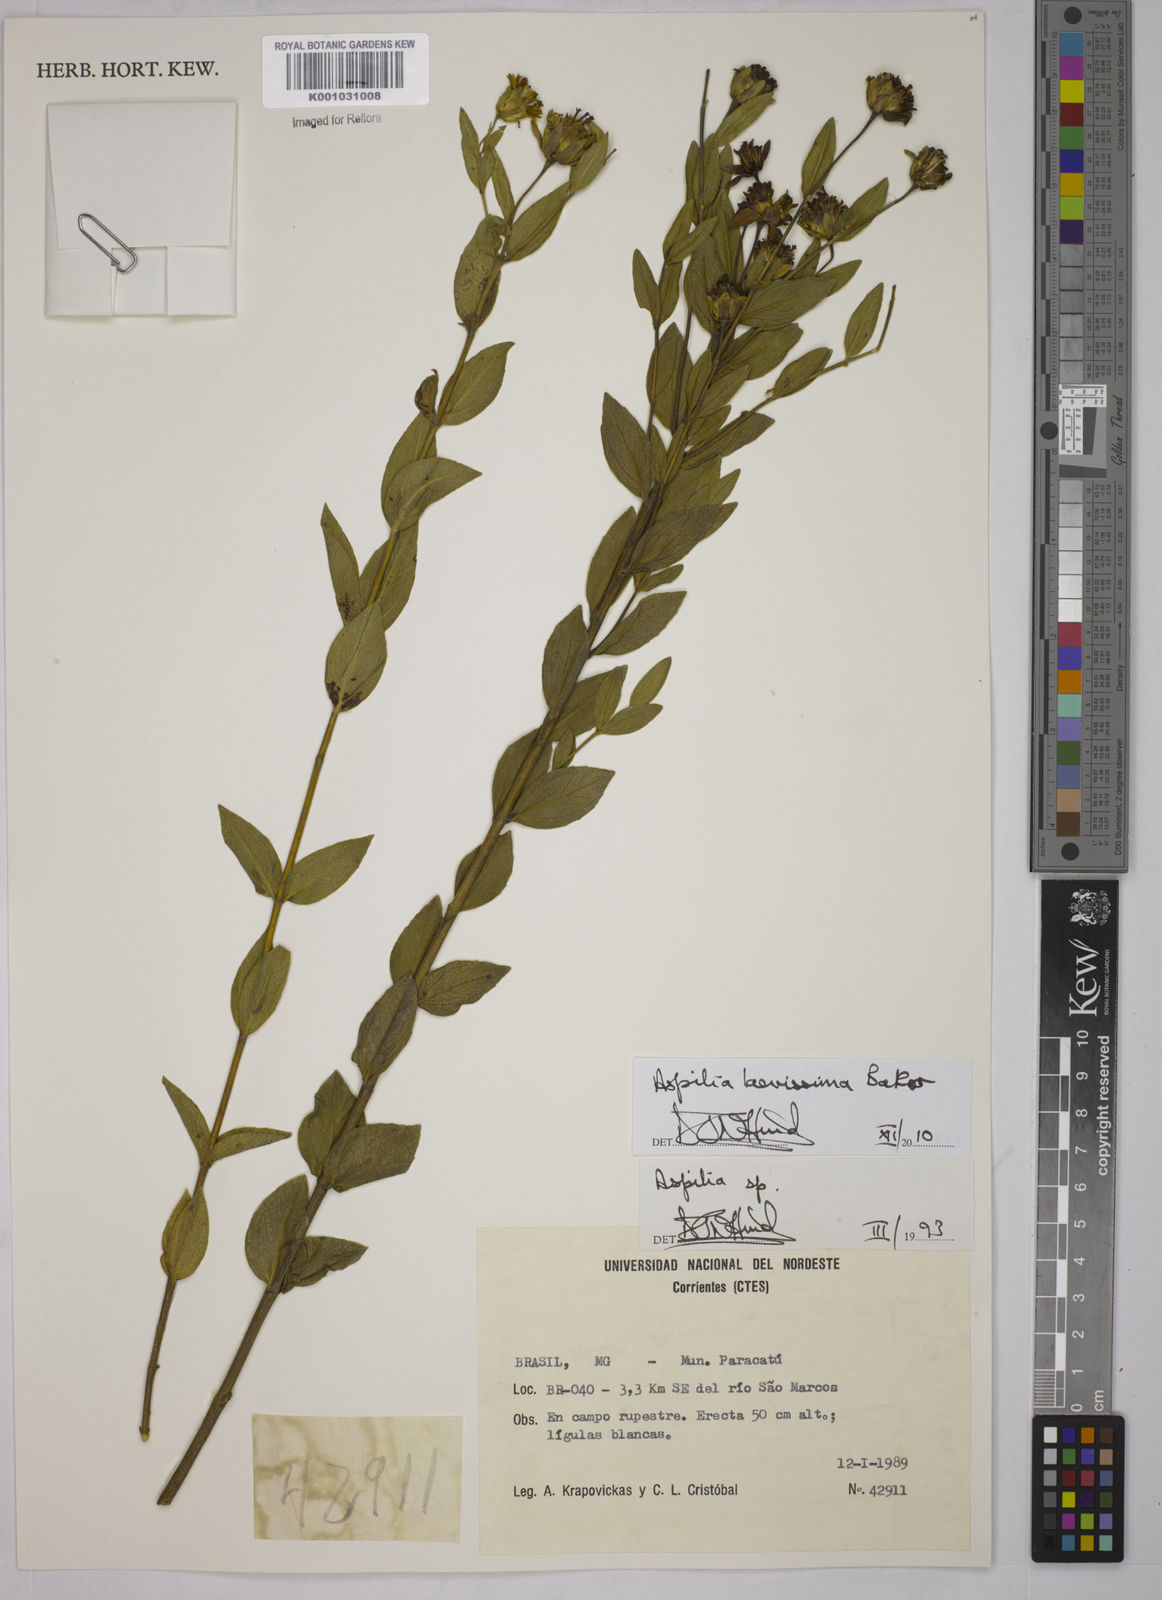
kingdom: Plantae
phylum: Tracheophyta
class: Magnoliopsida
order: Asterales
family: Asteraceae
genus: Wedelia
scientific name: Wedelia laevissima
